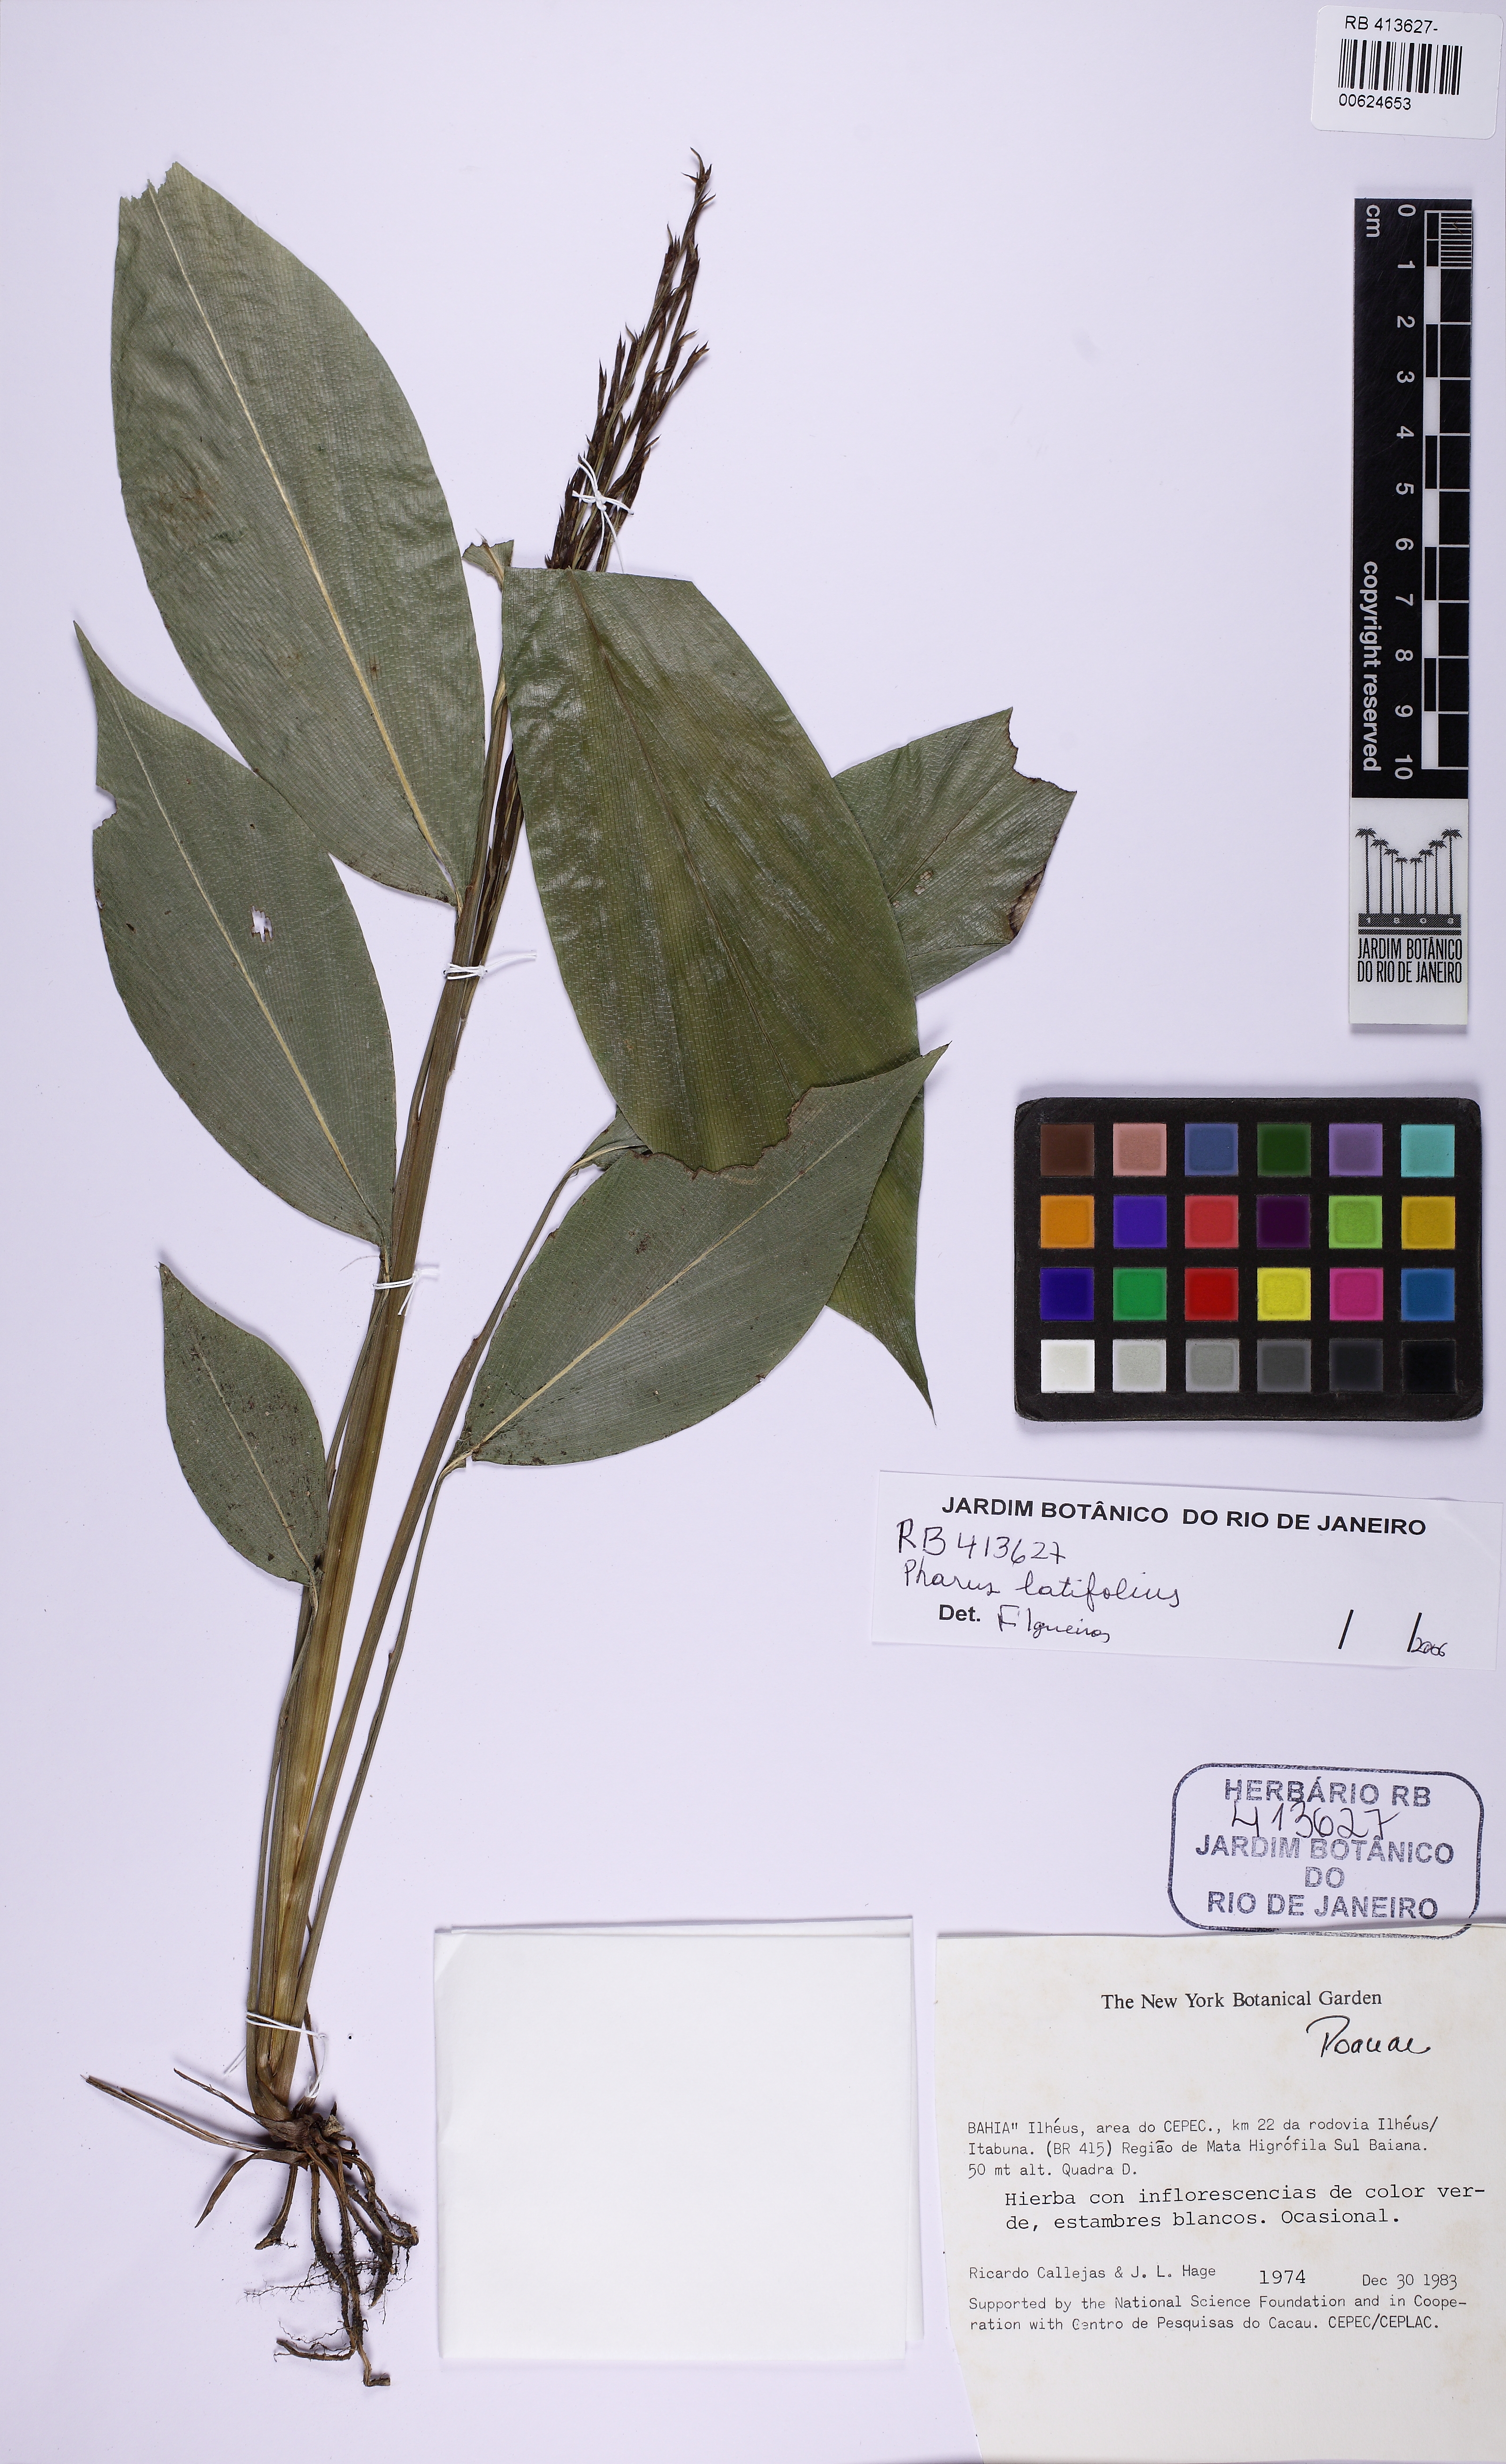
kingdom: Plantae
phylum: Tracheophyta
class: Liliopsida
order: Poales
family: Poaceae
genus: Pharus
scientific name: Pharus latifolius
